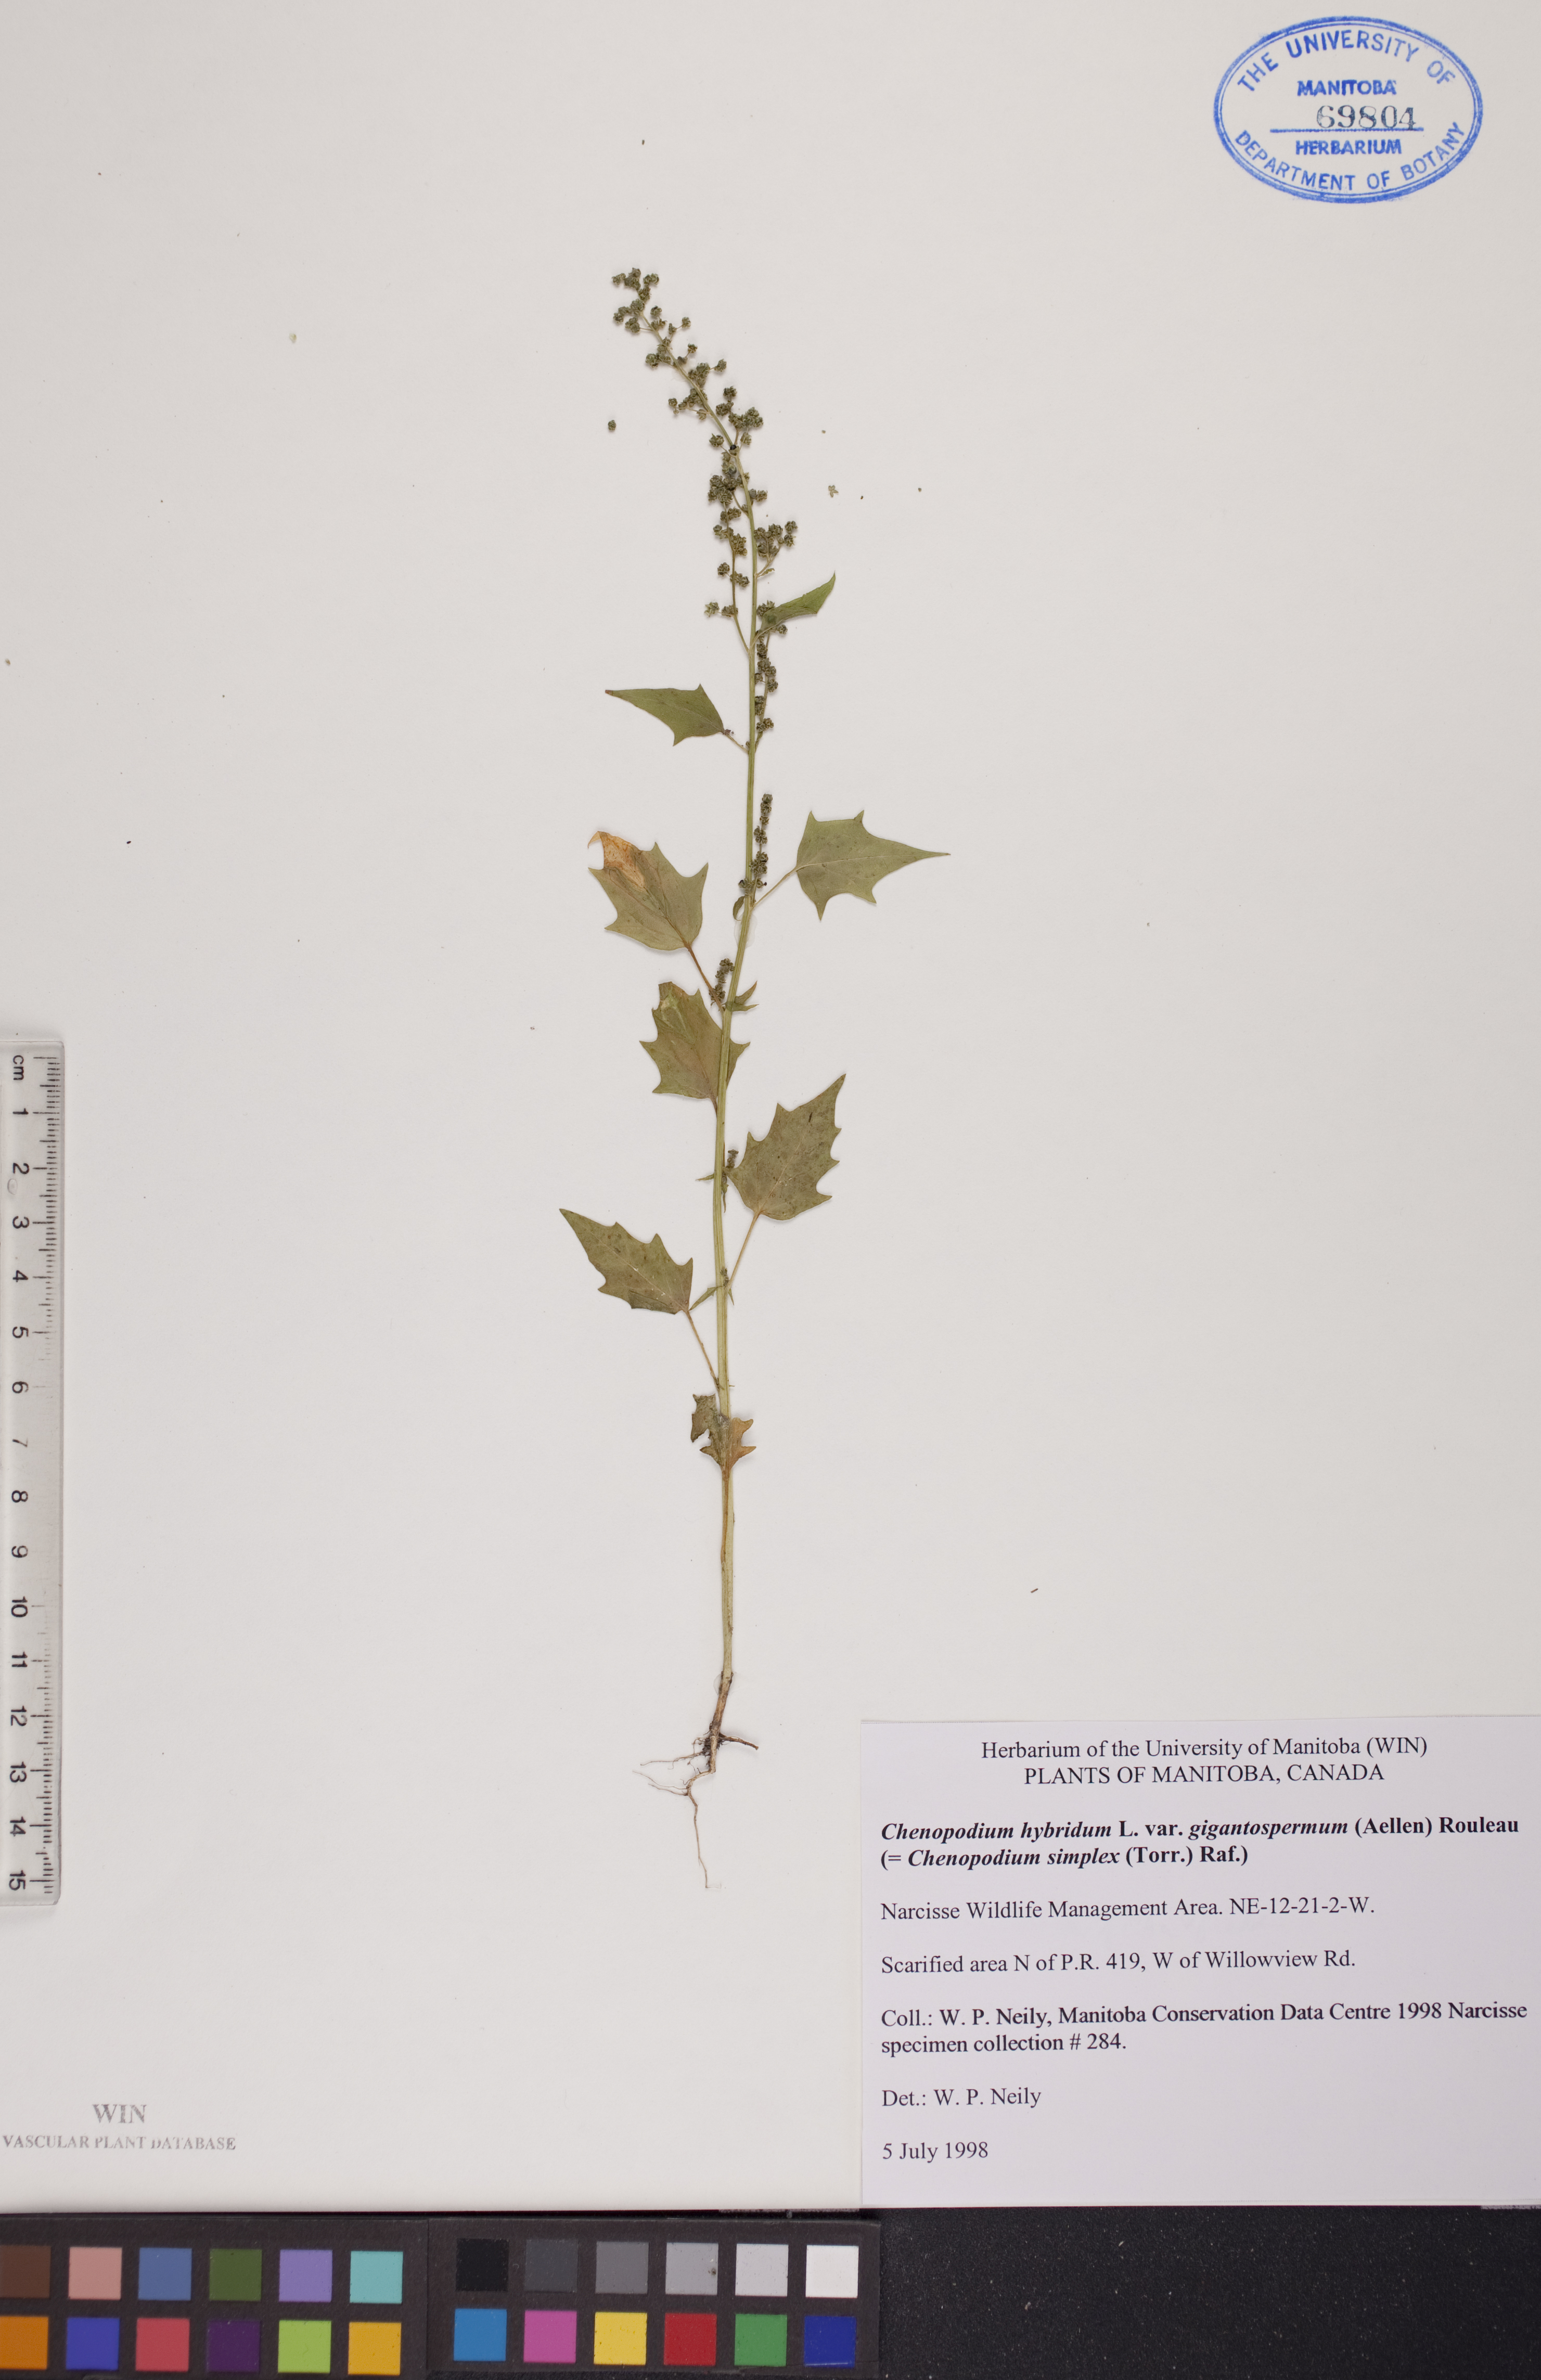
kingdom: Plantae
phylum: Tracheophyta
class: Magnoliopsida
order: Caryophyllales
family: Amaranthaceae
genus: Chenopodiastrum
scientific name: Chenopodiastrum simplex
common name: Large-seed goosefoot
